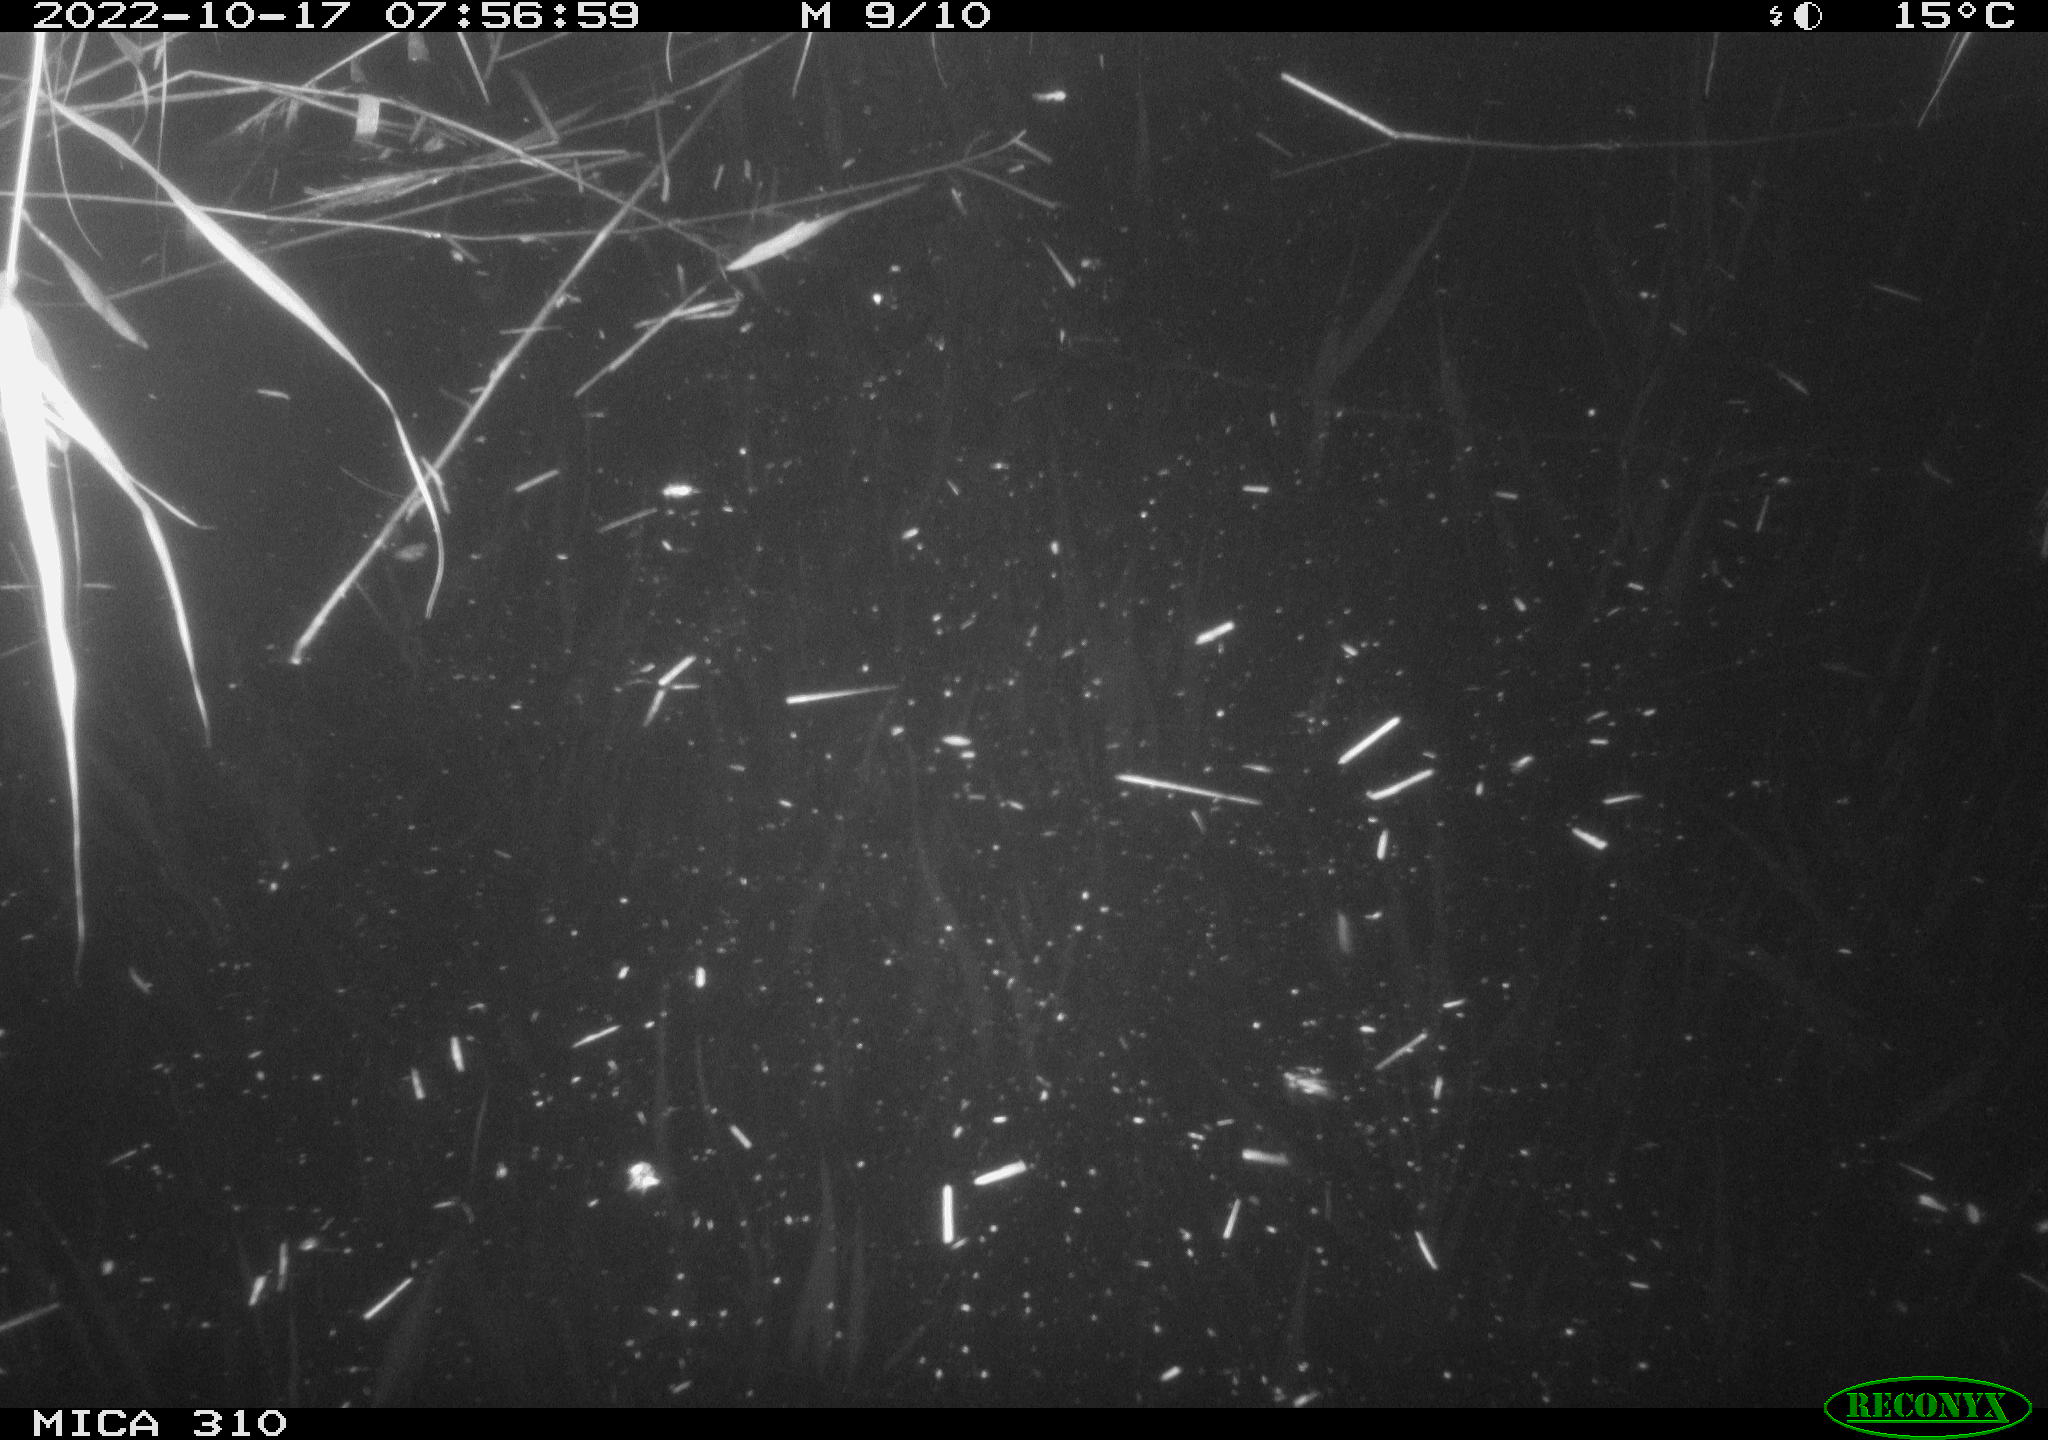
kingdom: Animalia
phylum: Chordata
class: Mammalia
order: Rodentia
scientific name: Rodentia
